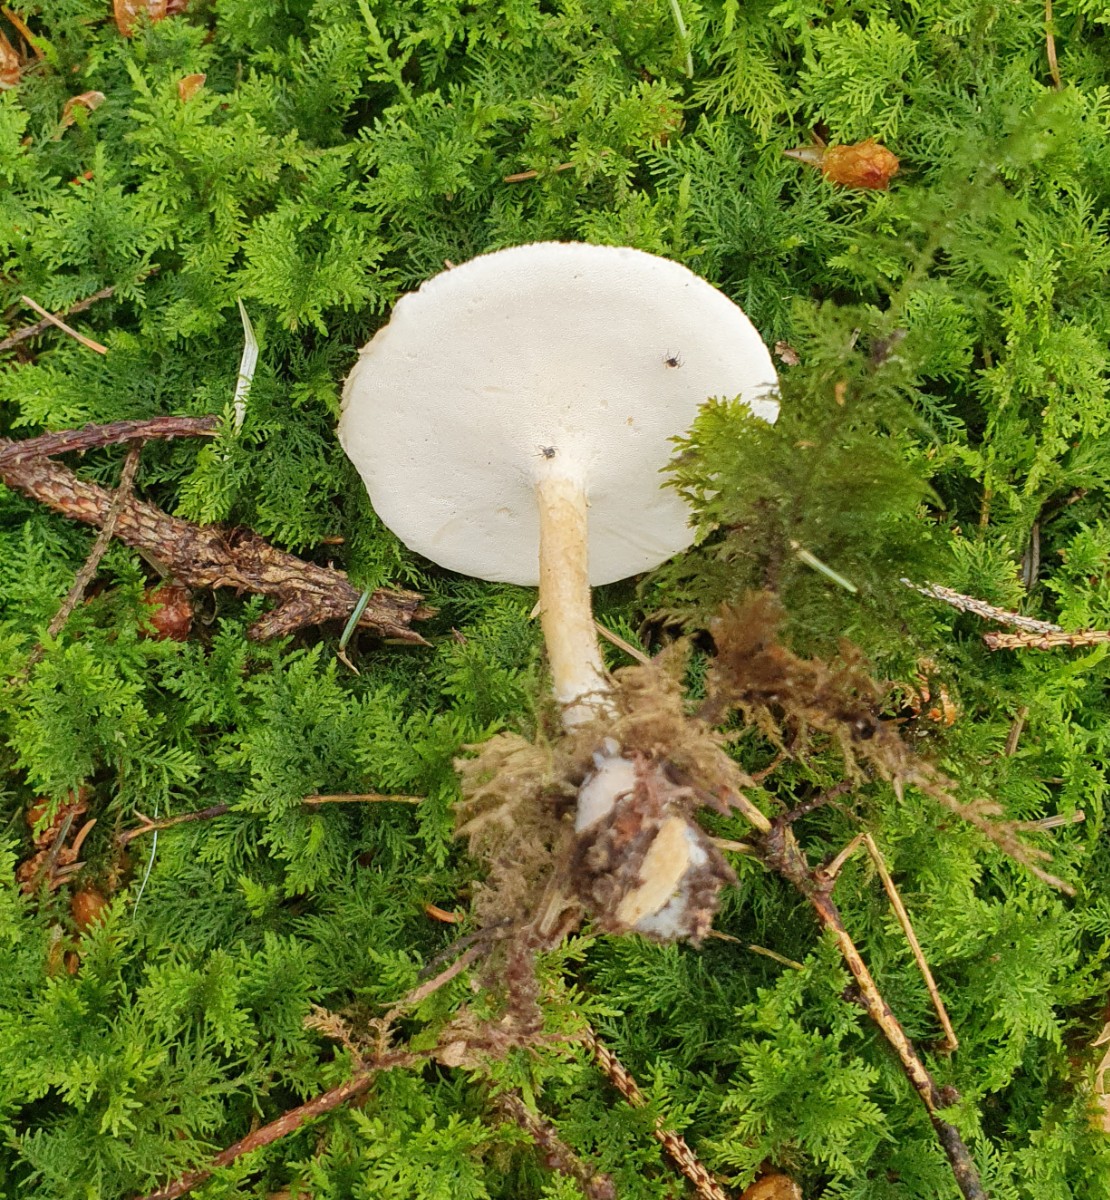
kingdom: Fungi
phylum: Basidiomycota
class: Agaricomycetes
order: Polyporales
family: Polyporaceae
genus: Lentinus
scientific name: Lentinus substrictus
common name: forårs-stilkporesvamp
